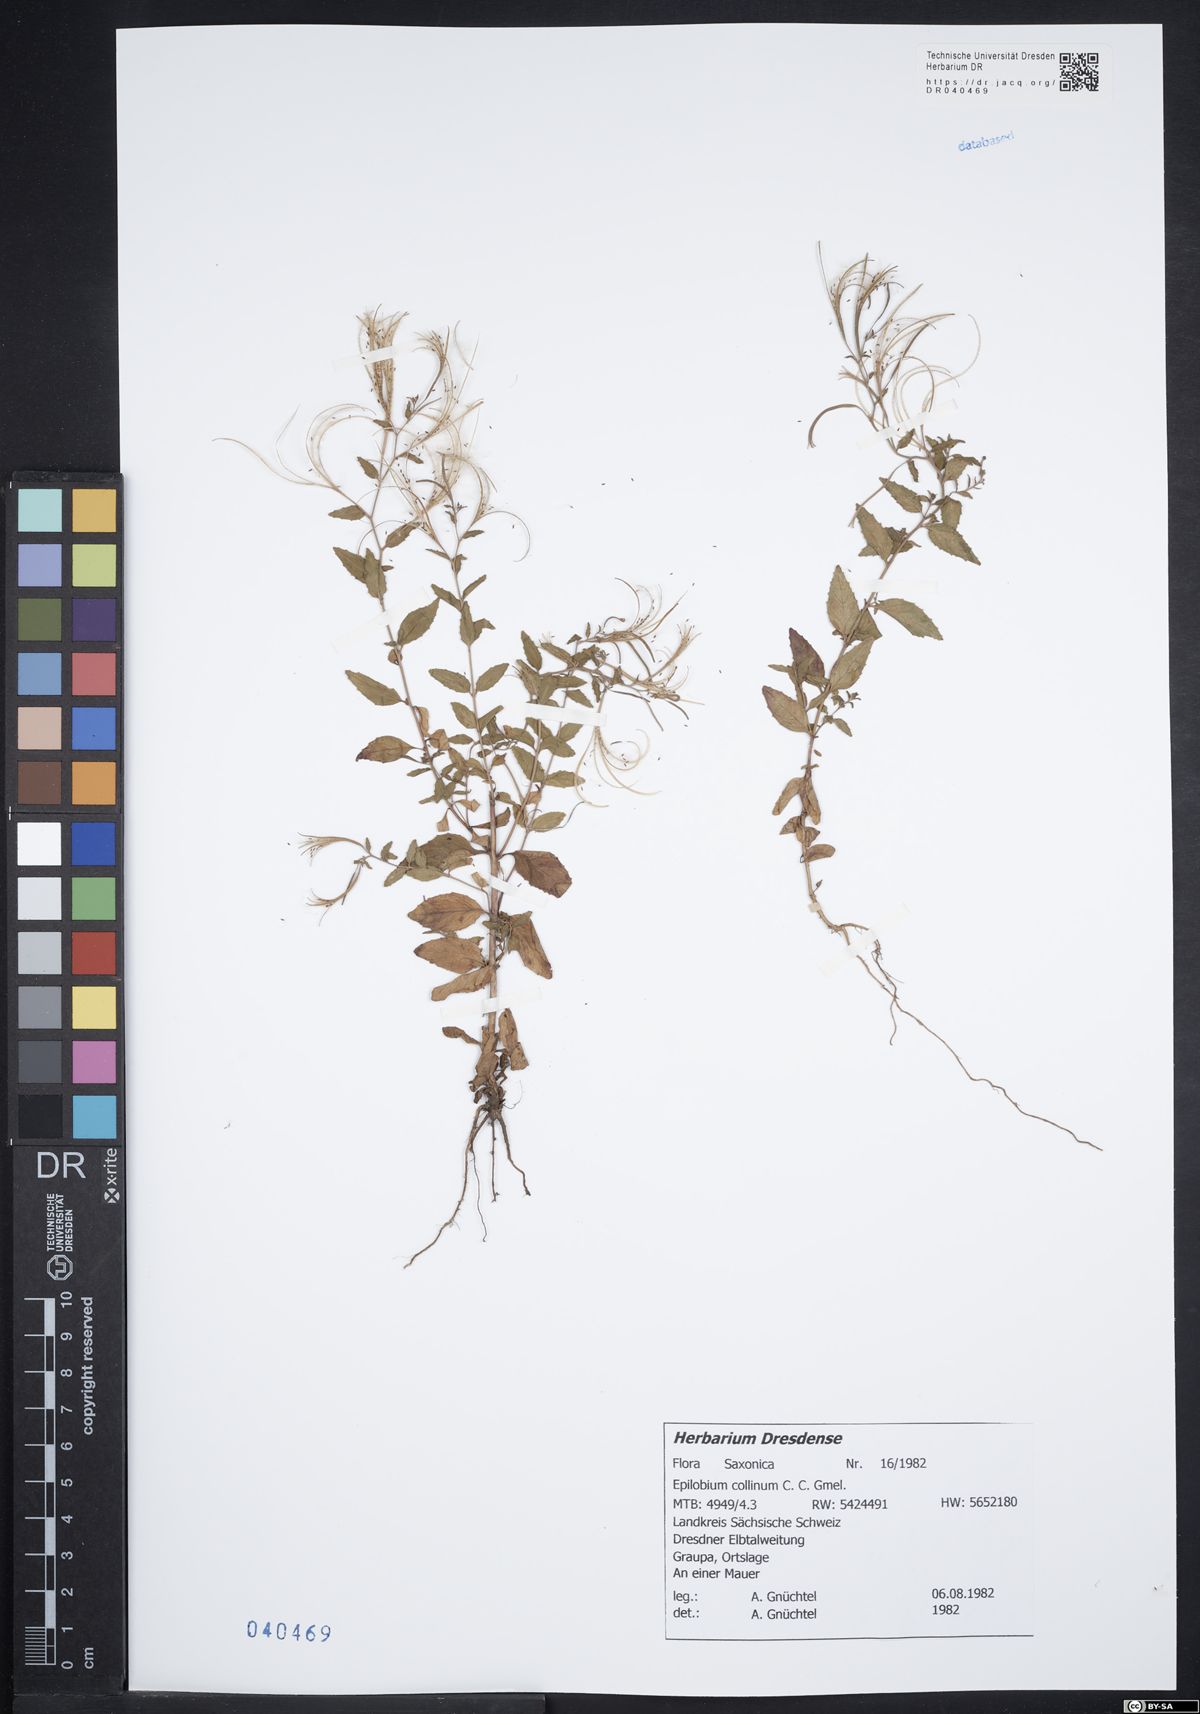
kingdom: Plantae
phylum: Tracheophyta
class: Magnoliopsida
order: Myrtales
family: Onagraceae
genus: Epilobium
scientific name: Epilobium collinum
